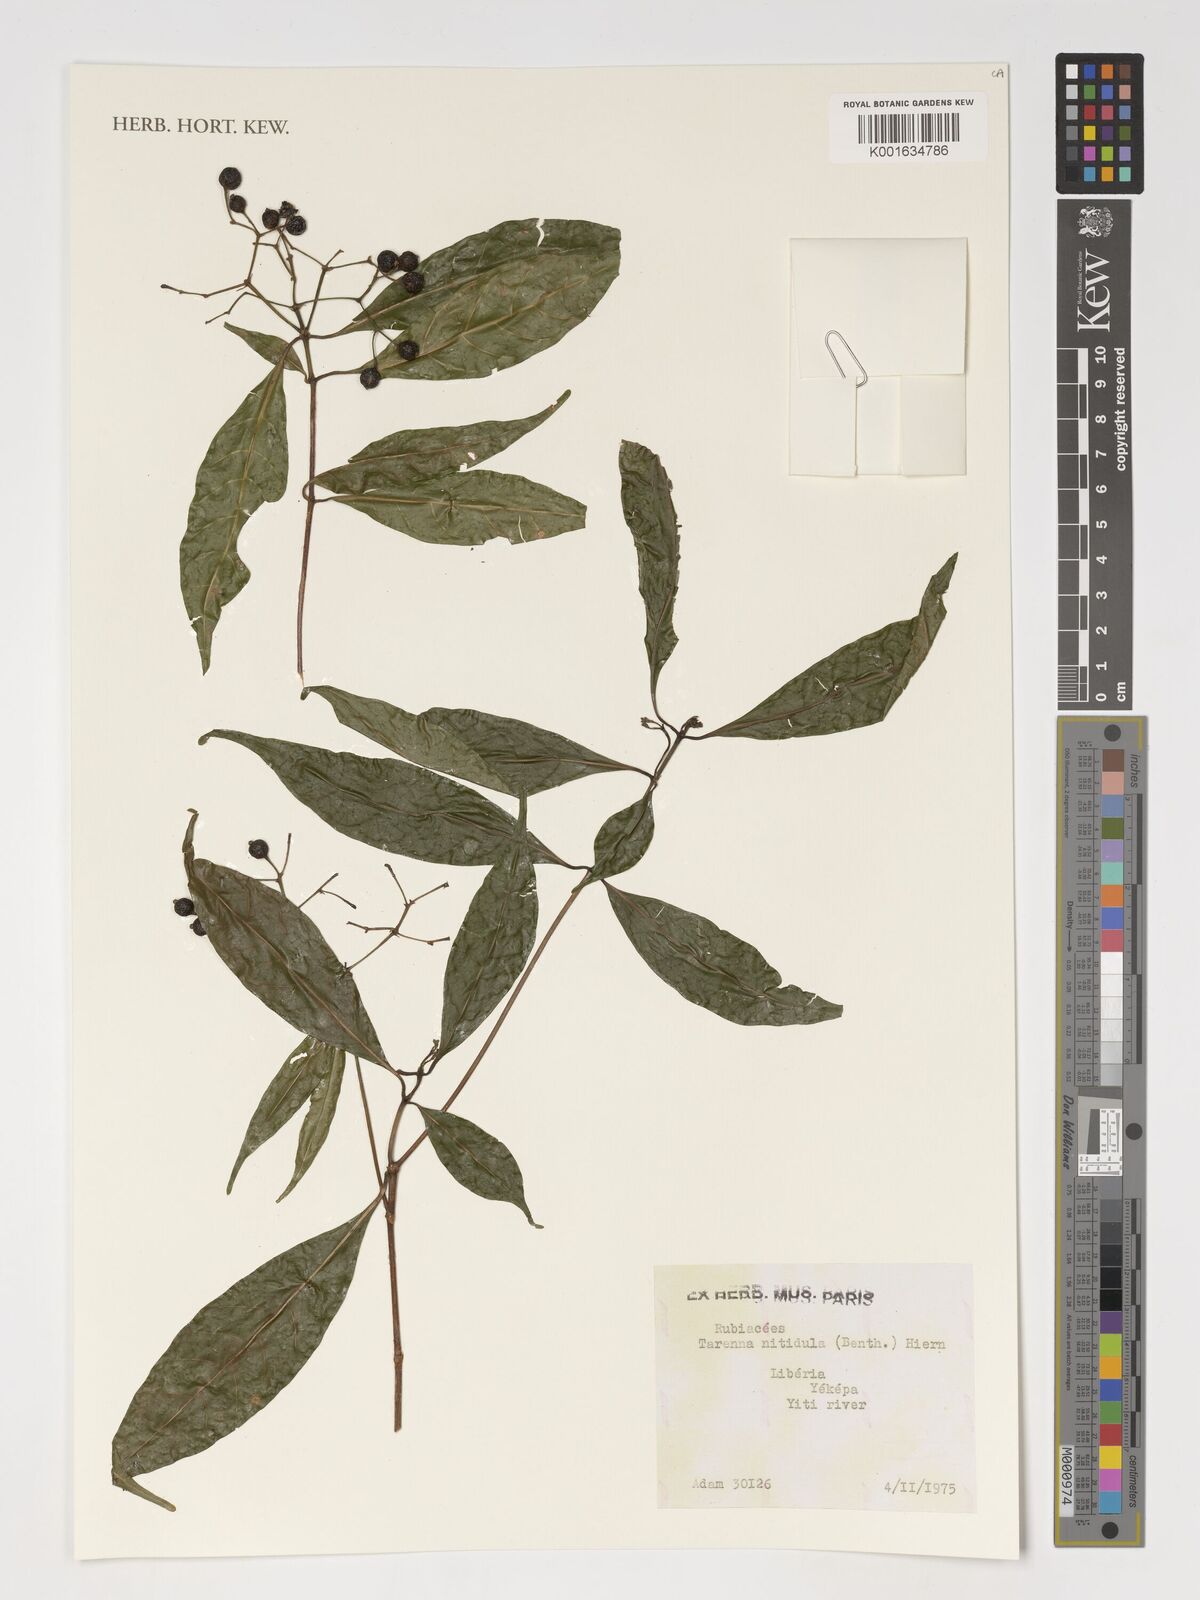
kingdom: Plantae
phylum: Tracheophyta
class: Magnoliopsida
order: Gentianales
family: Rubiaceae
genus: Tarenna
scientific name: Tarenna nitidula
